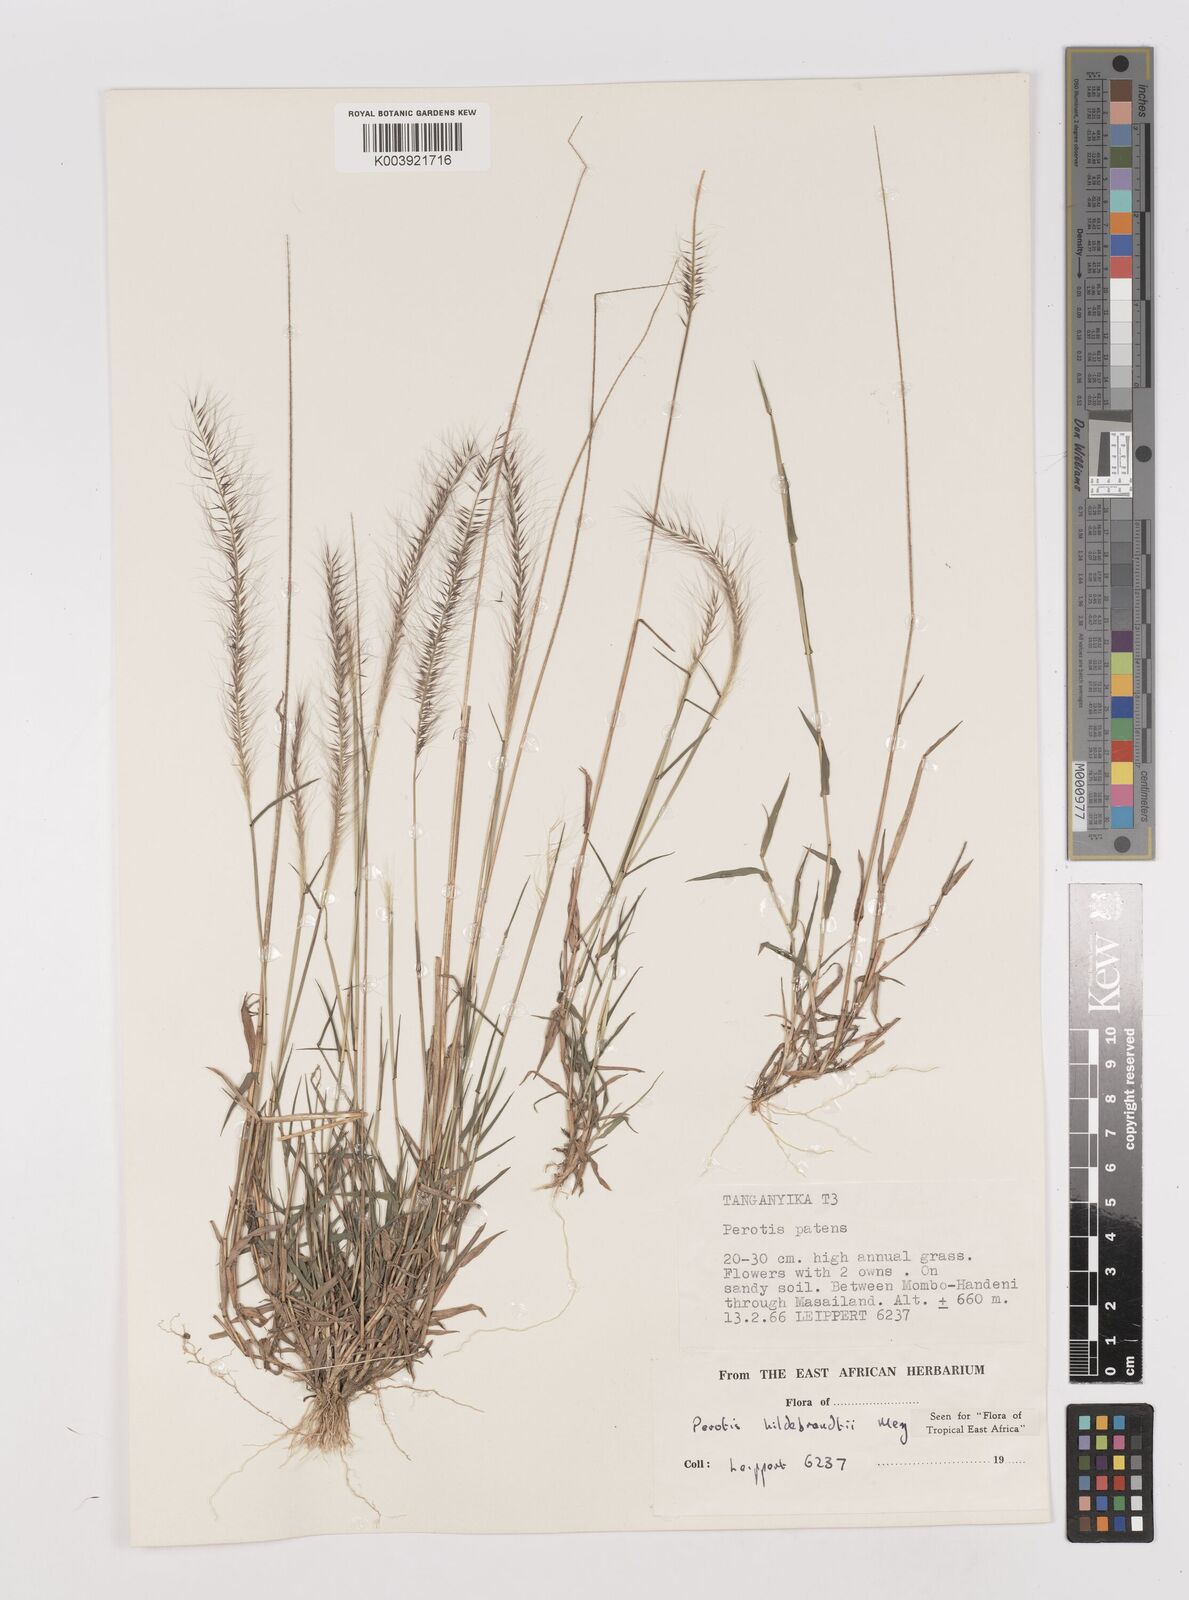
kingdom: Plantae
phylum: Tracheophyta
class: Liliopsida
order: Poales
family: Poaceae
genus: Perotis
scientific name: Perotis hildebrandtii
